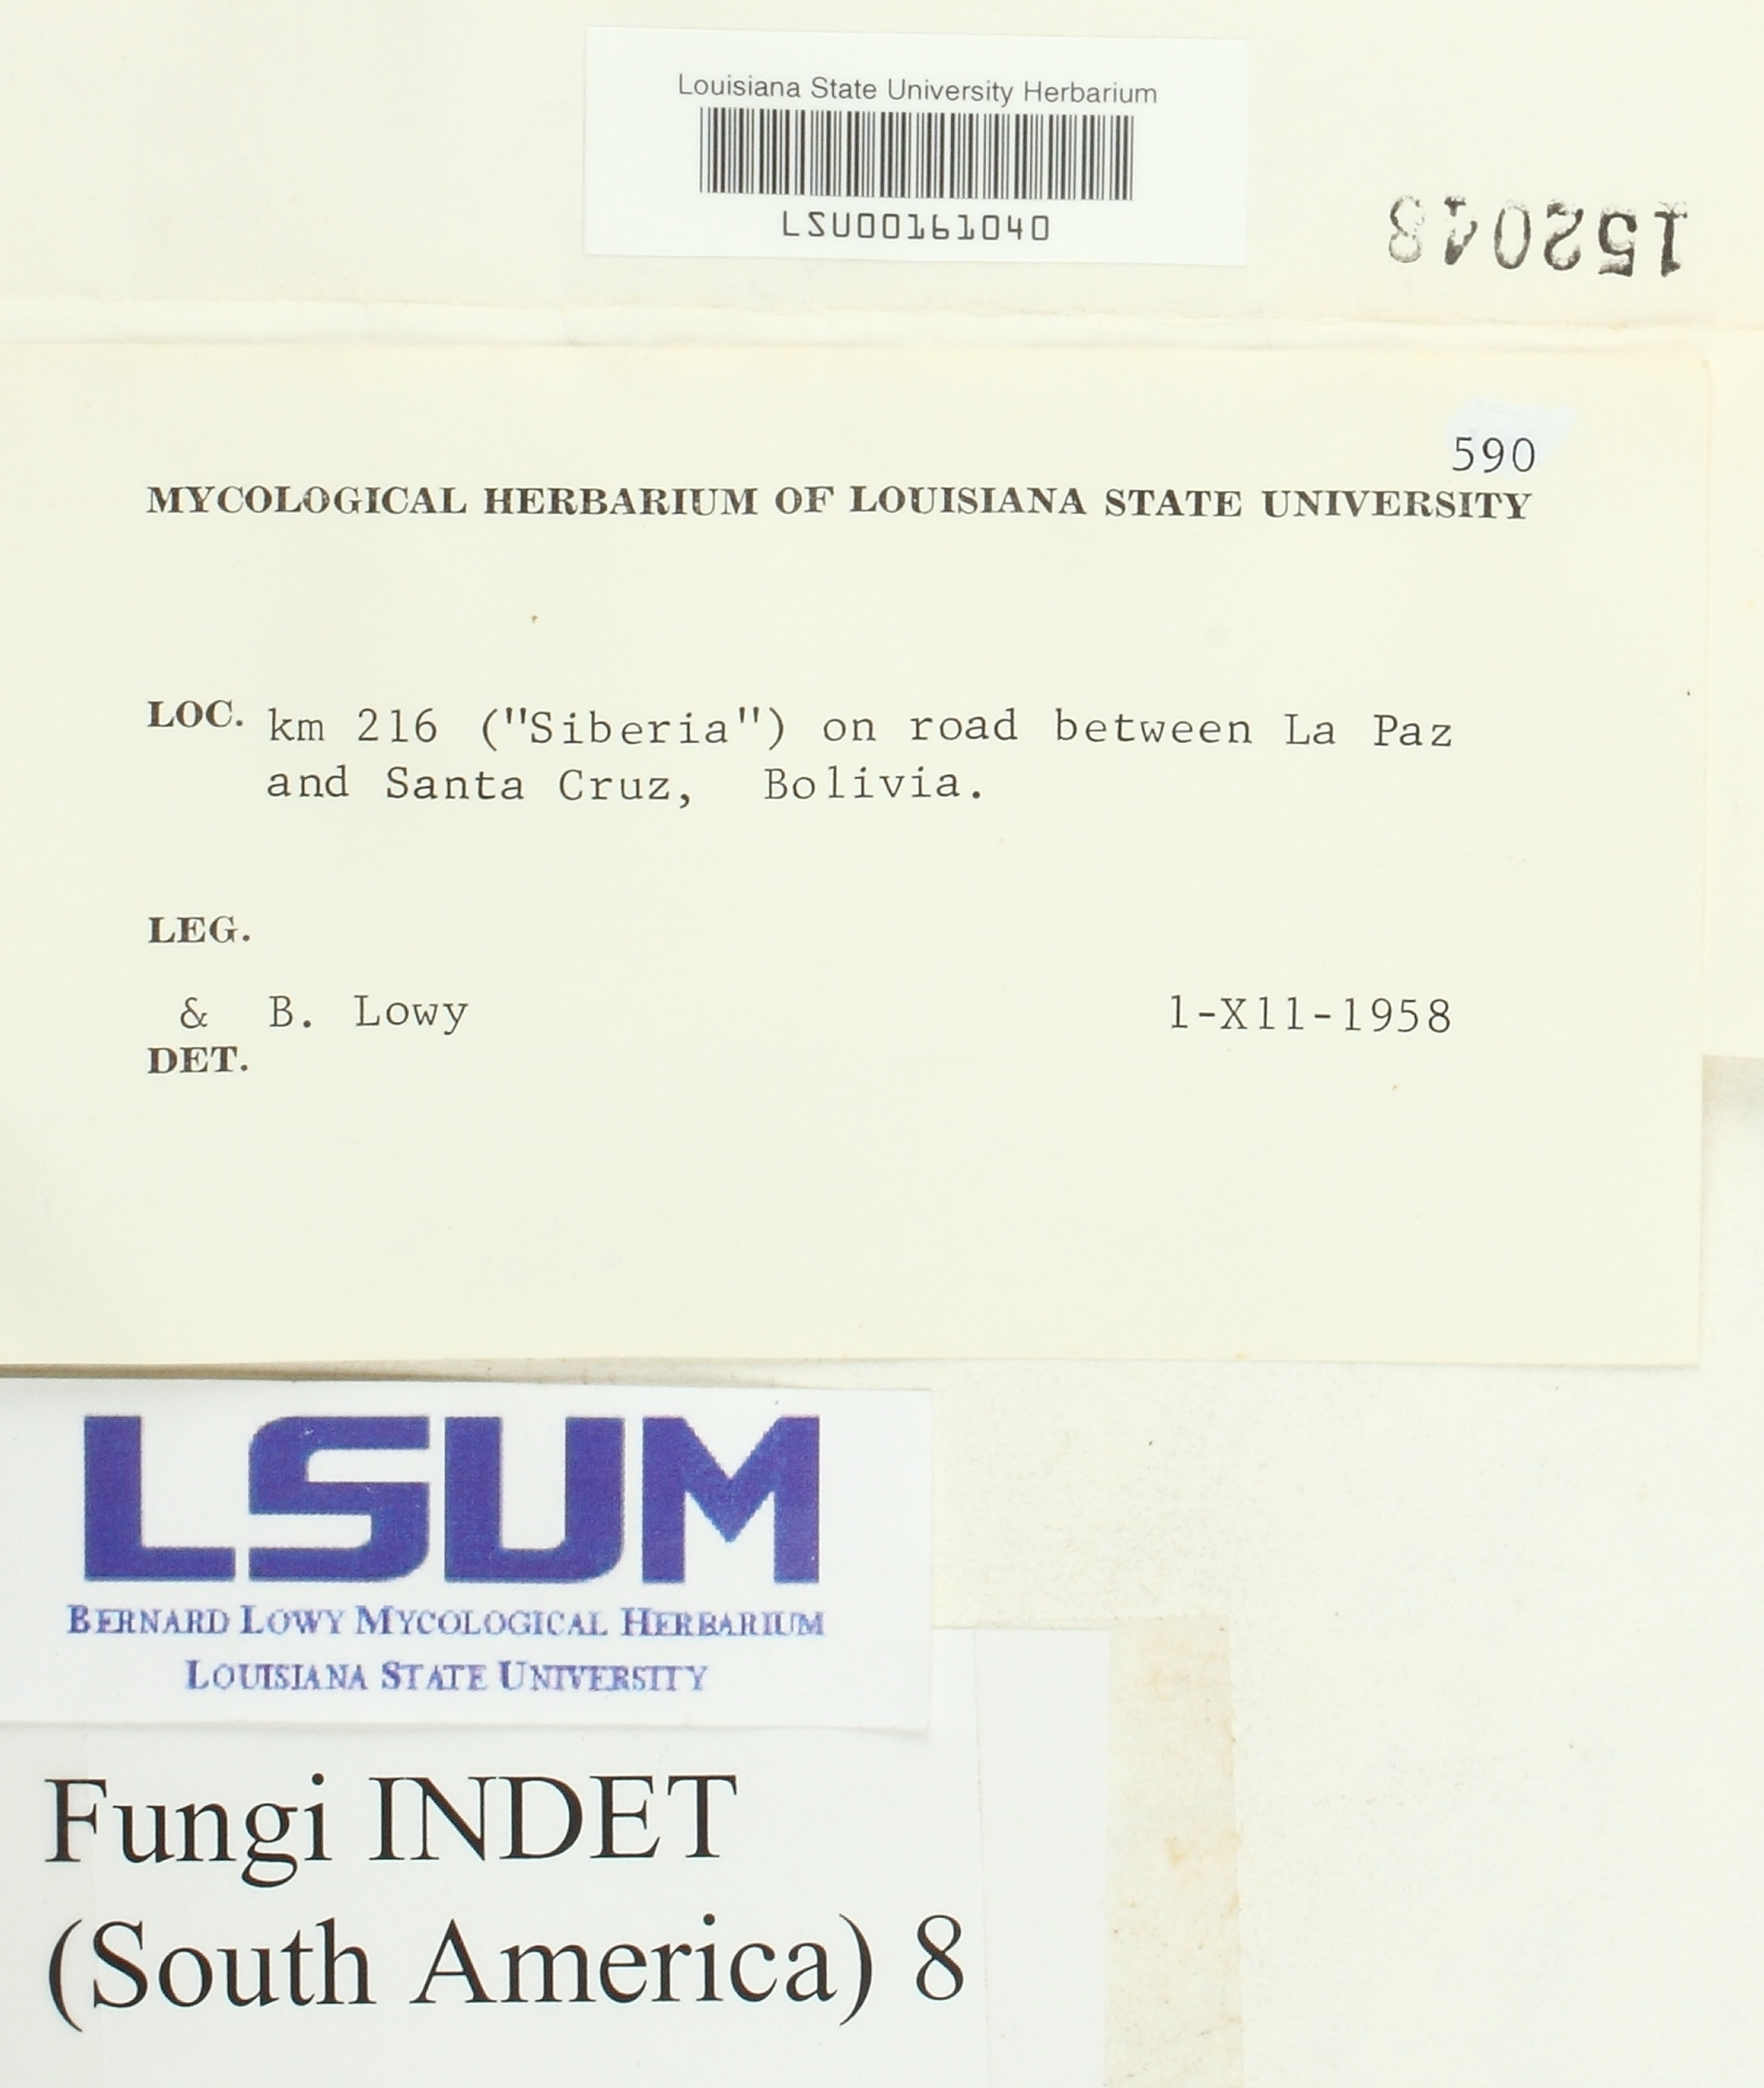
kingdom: Fungi
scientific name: Fungi
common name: Fungi
